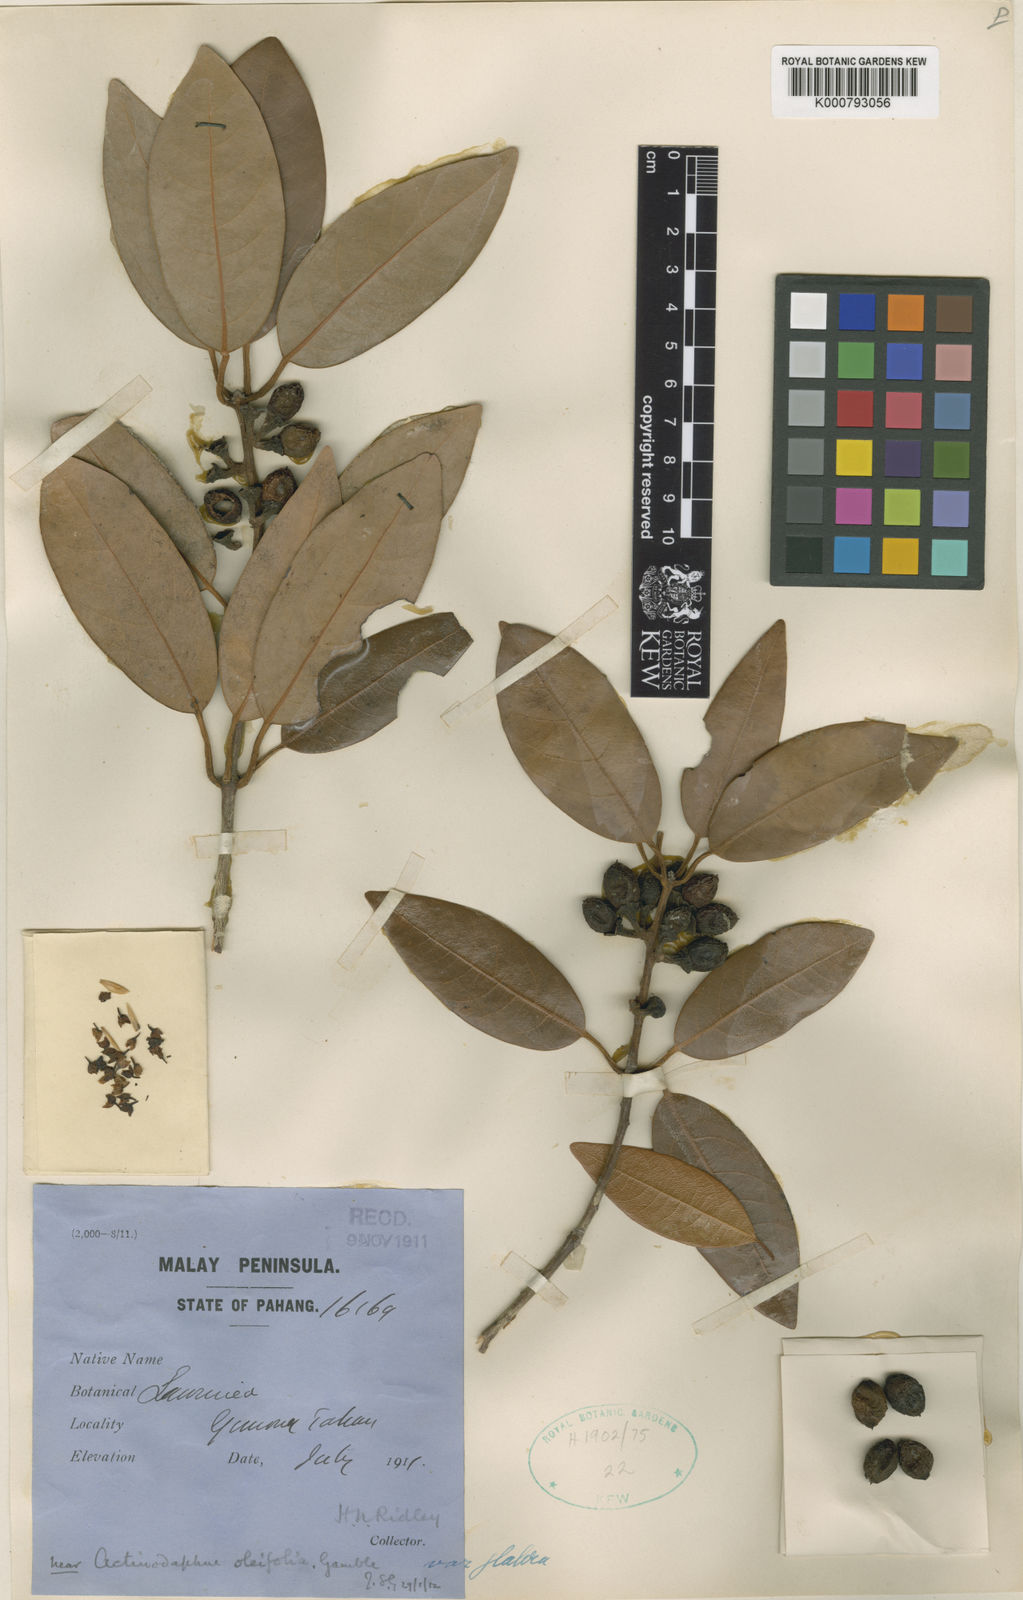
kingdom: Plantae
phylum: Tracheophyta
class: Magnoliopsida
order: Laurales
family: Lauraceae
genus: Actinodaphne
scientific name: Actinodaphne oleifolia
